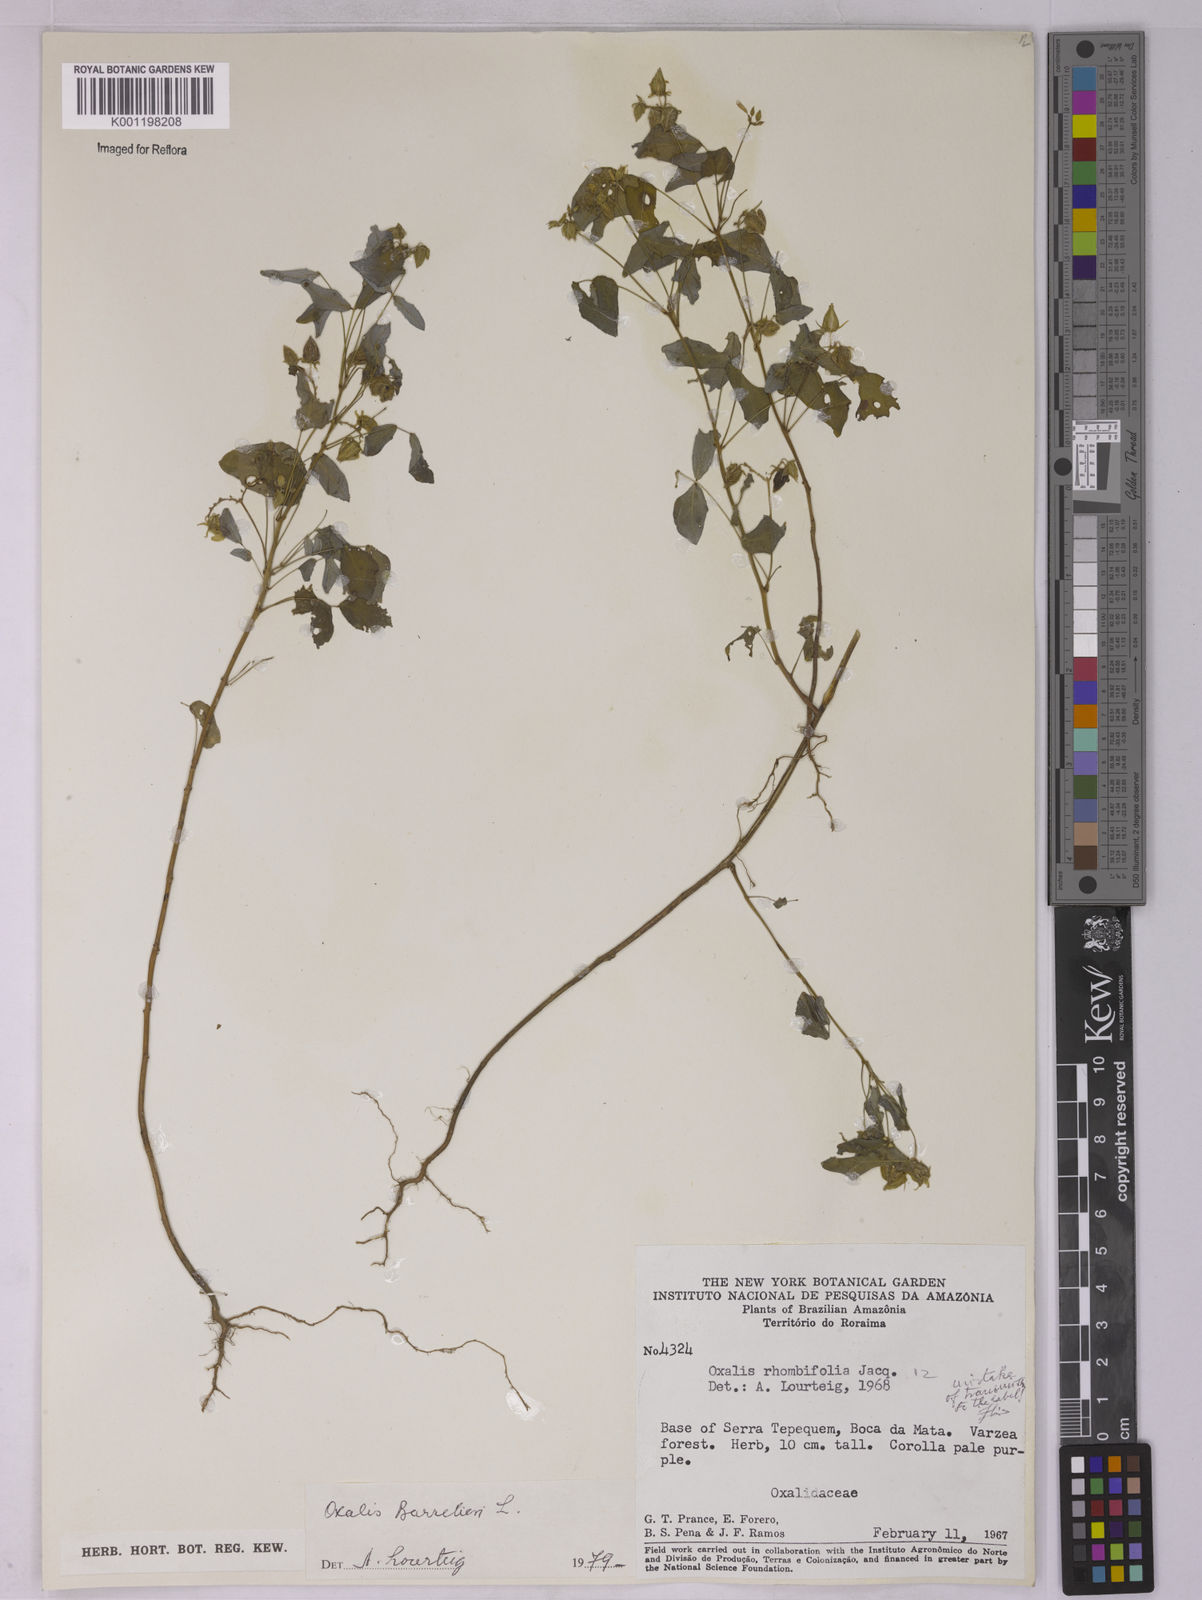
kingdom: Plantae
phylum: Tracheophyta
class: Magnoliopsida
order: Oxalidales
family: Oxalidaceae
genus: Oxalis
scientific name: Oxalis barrelieri
